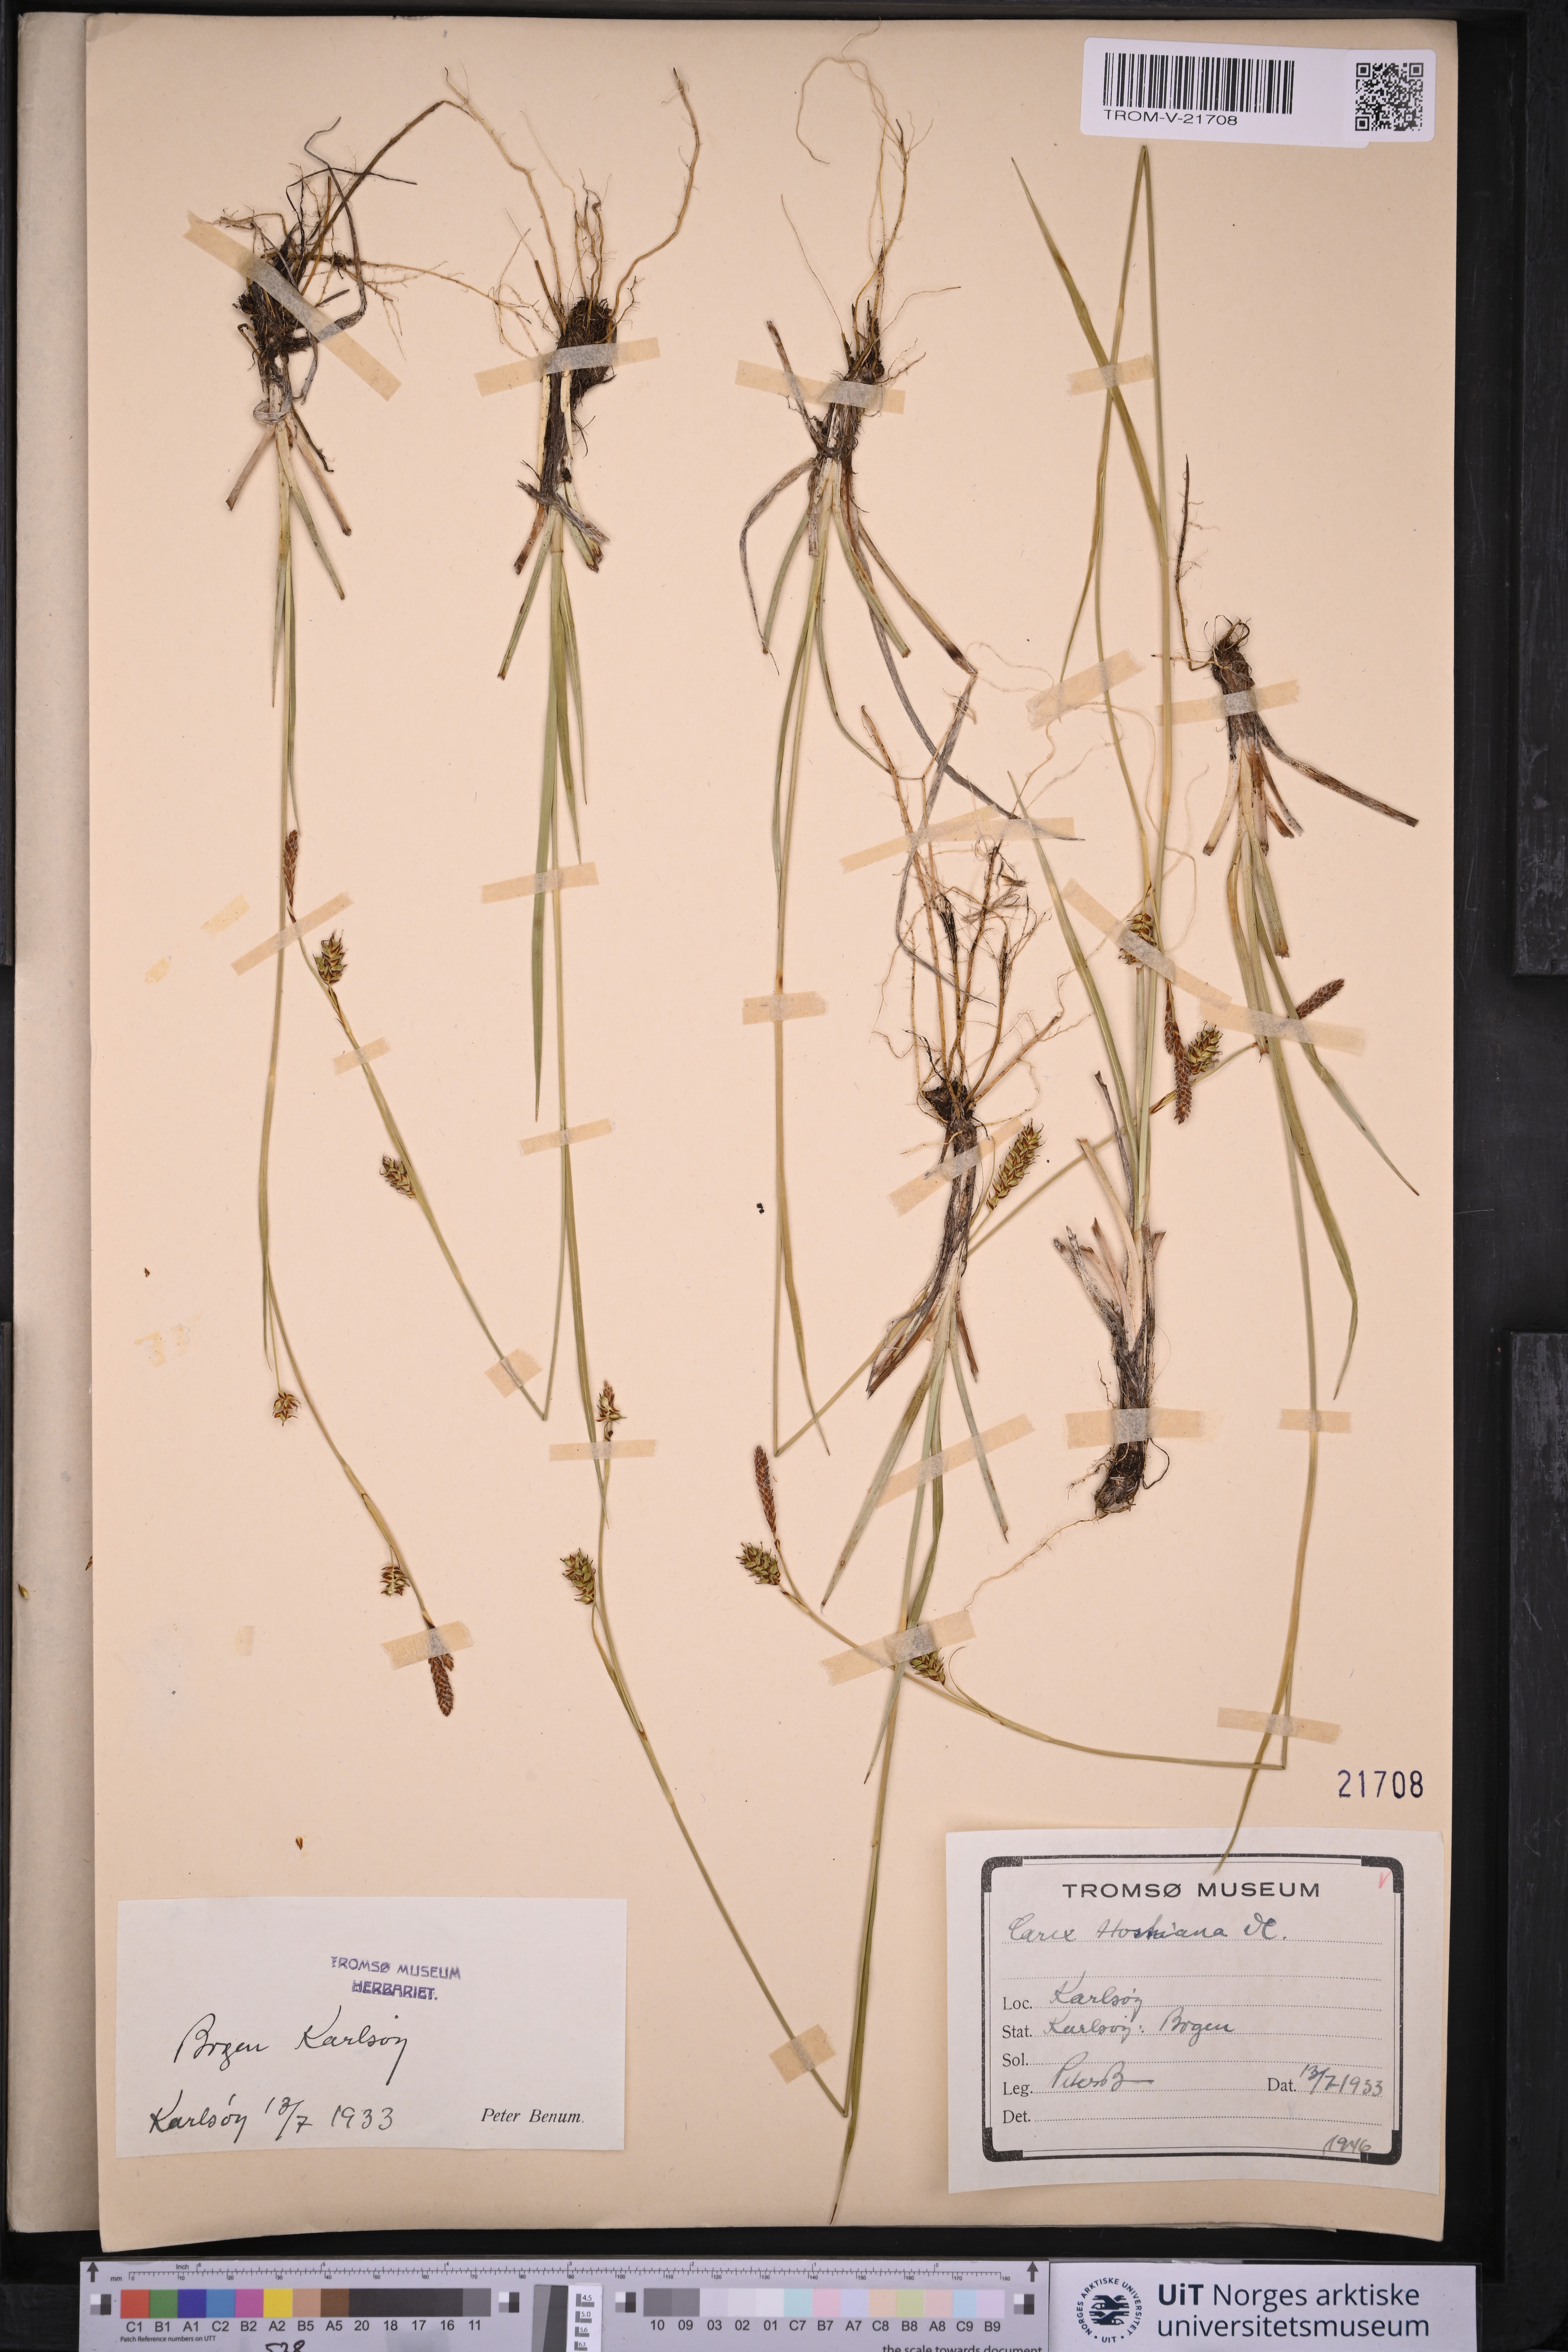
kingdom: Plantae
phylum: Tracheophyta
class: Liliopsida
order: Poales
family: Cyperaceae
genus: Carex
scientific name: Carex hostiana
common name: Tawny sedge
